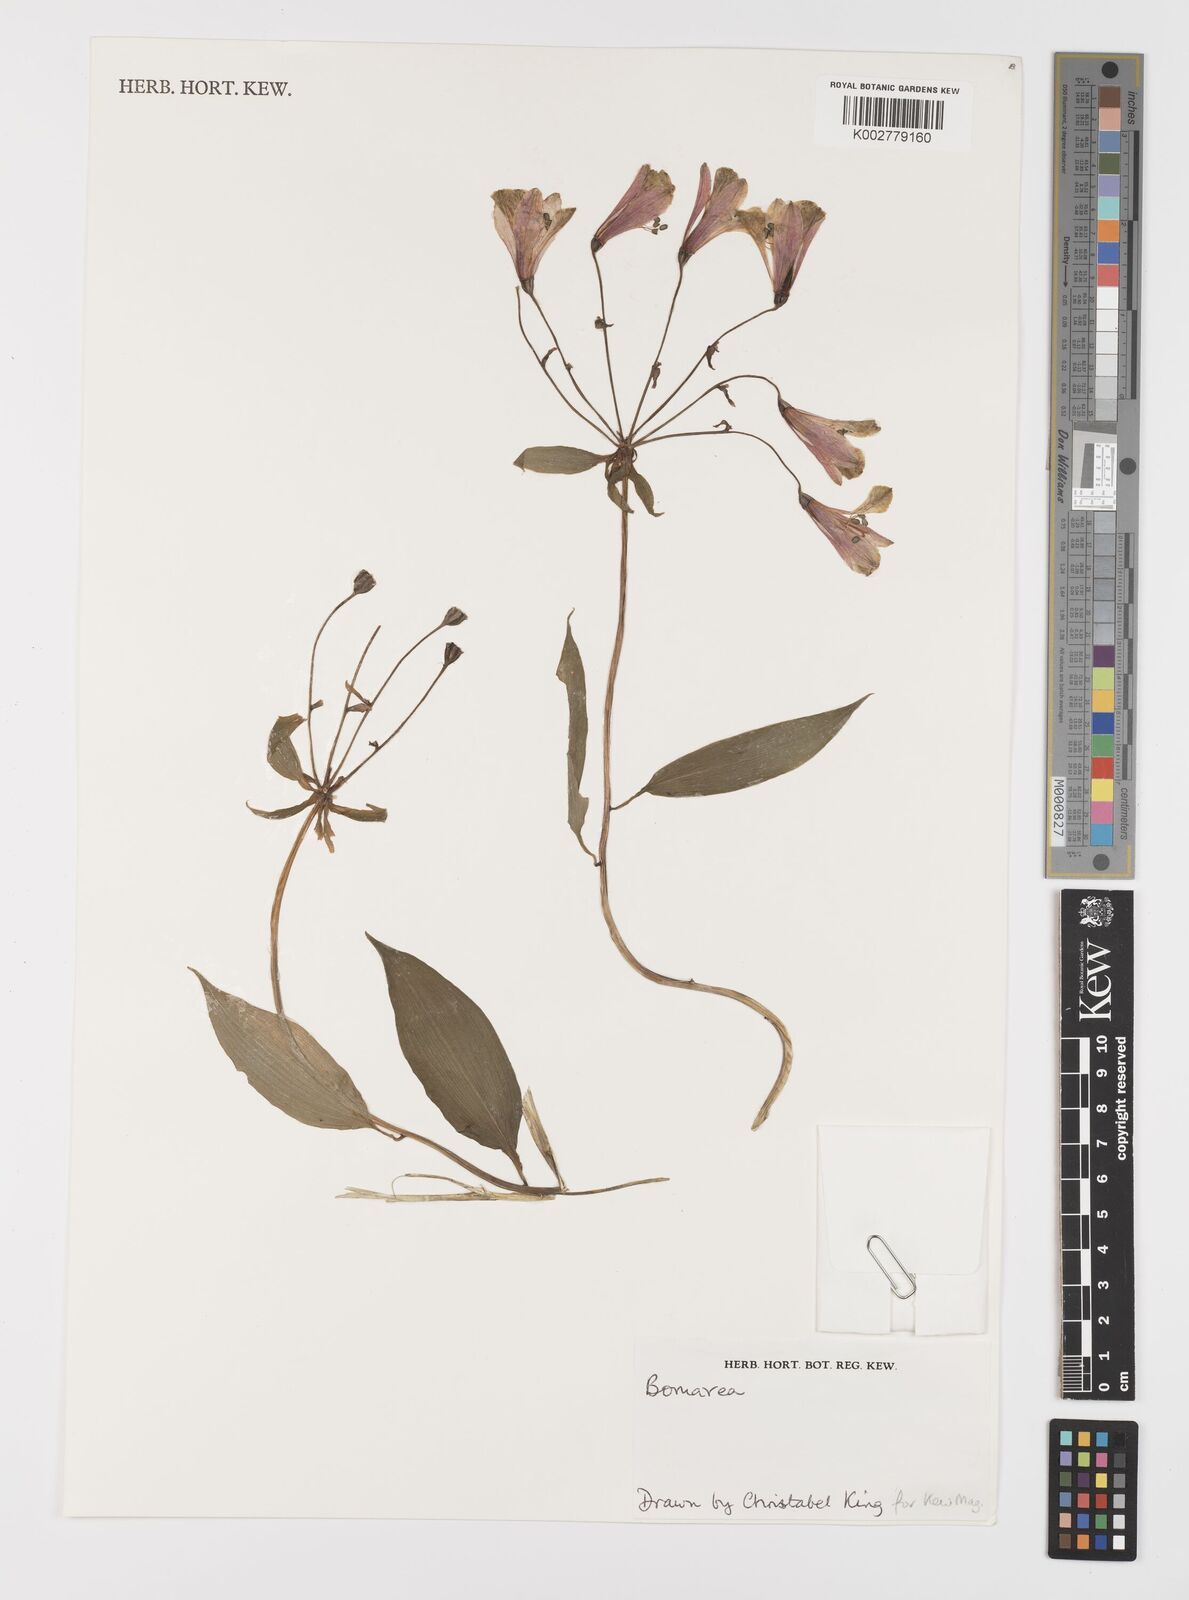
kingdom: Plantae
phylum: Tracheophyta
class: Liliopsida
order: Liliales
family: Alstroemeriaceae
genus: Bomarea
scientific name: Bomarea
